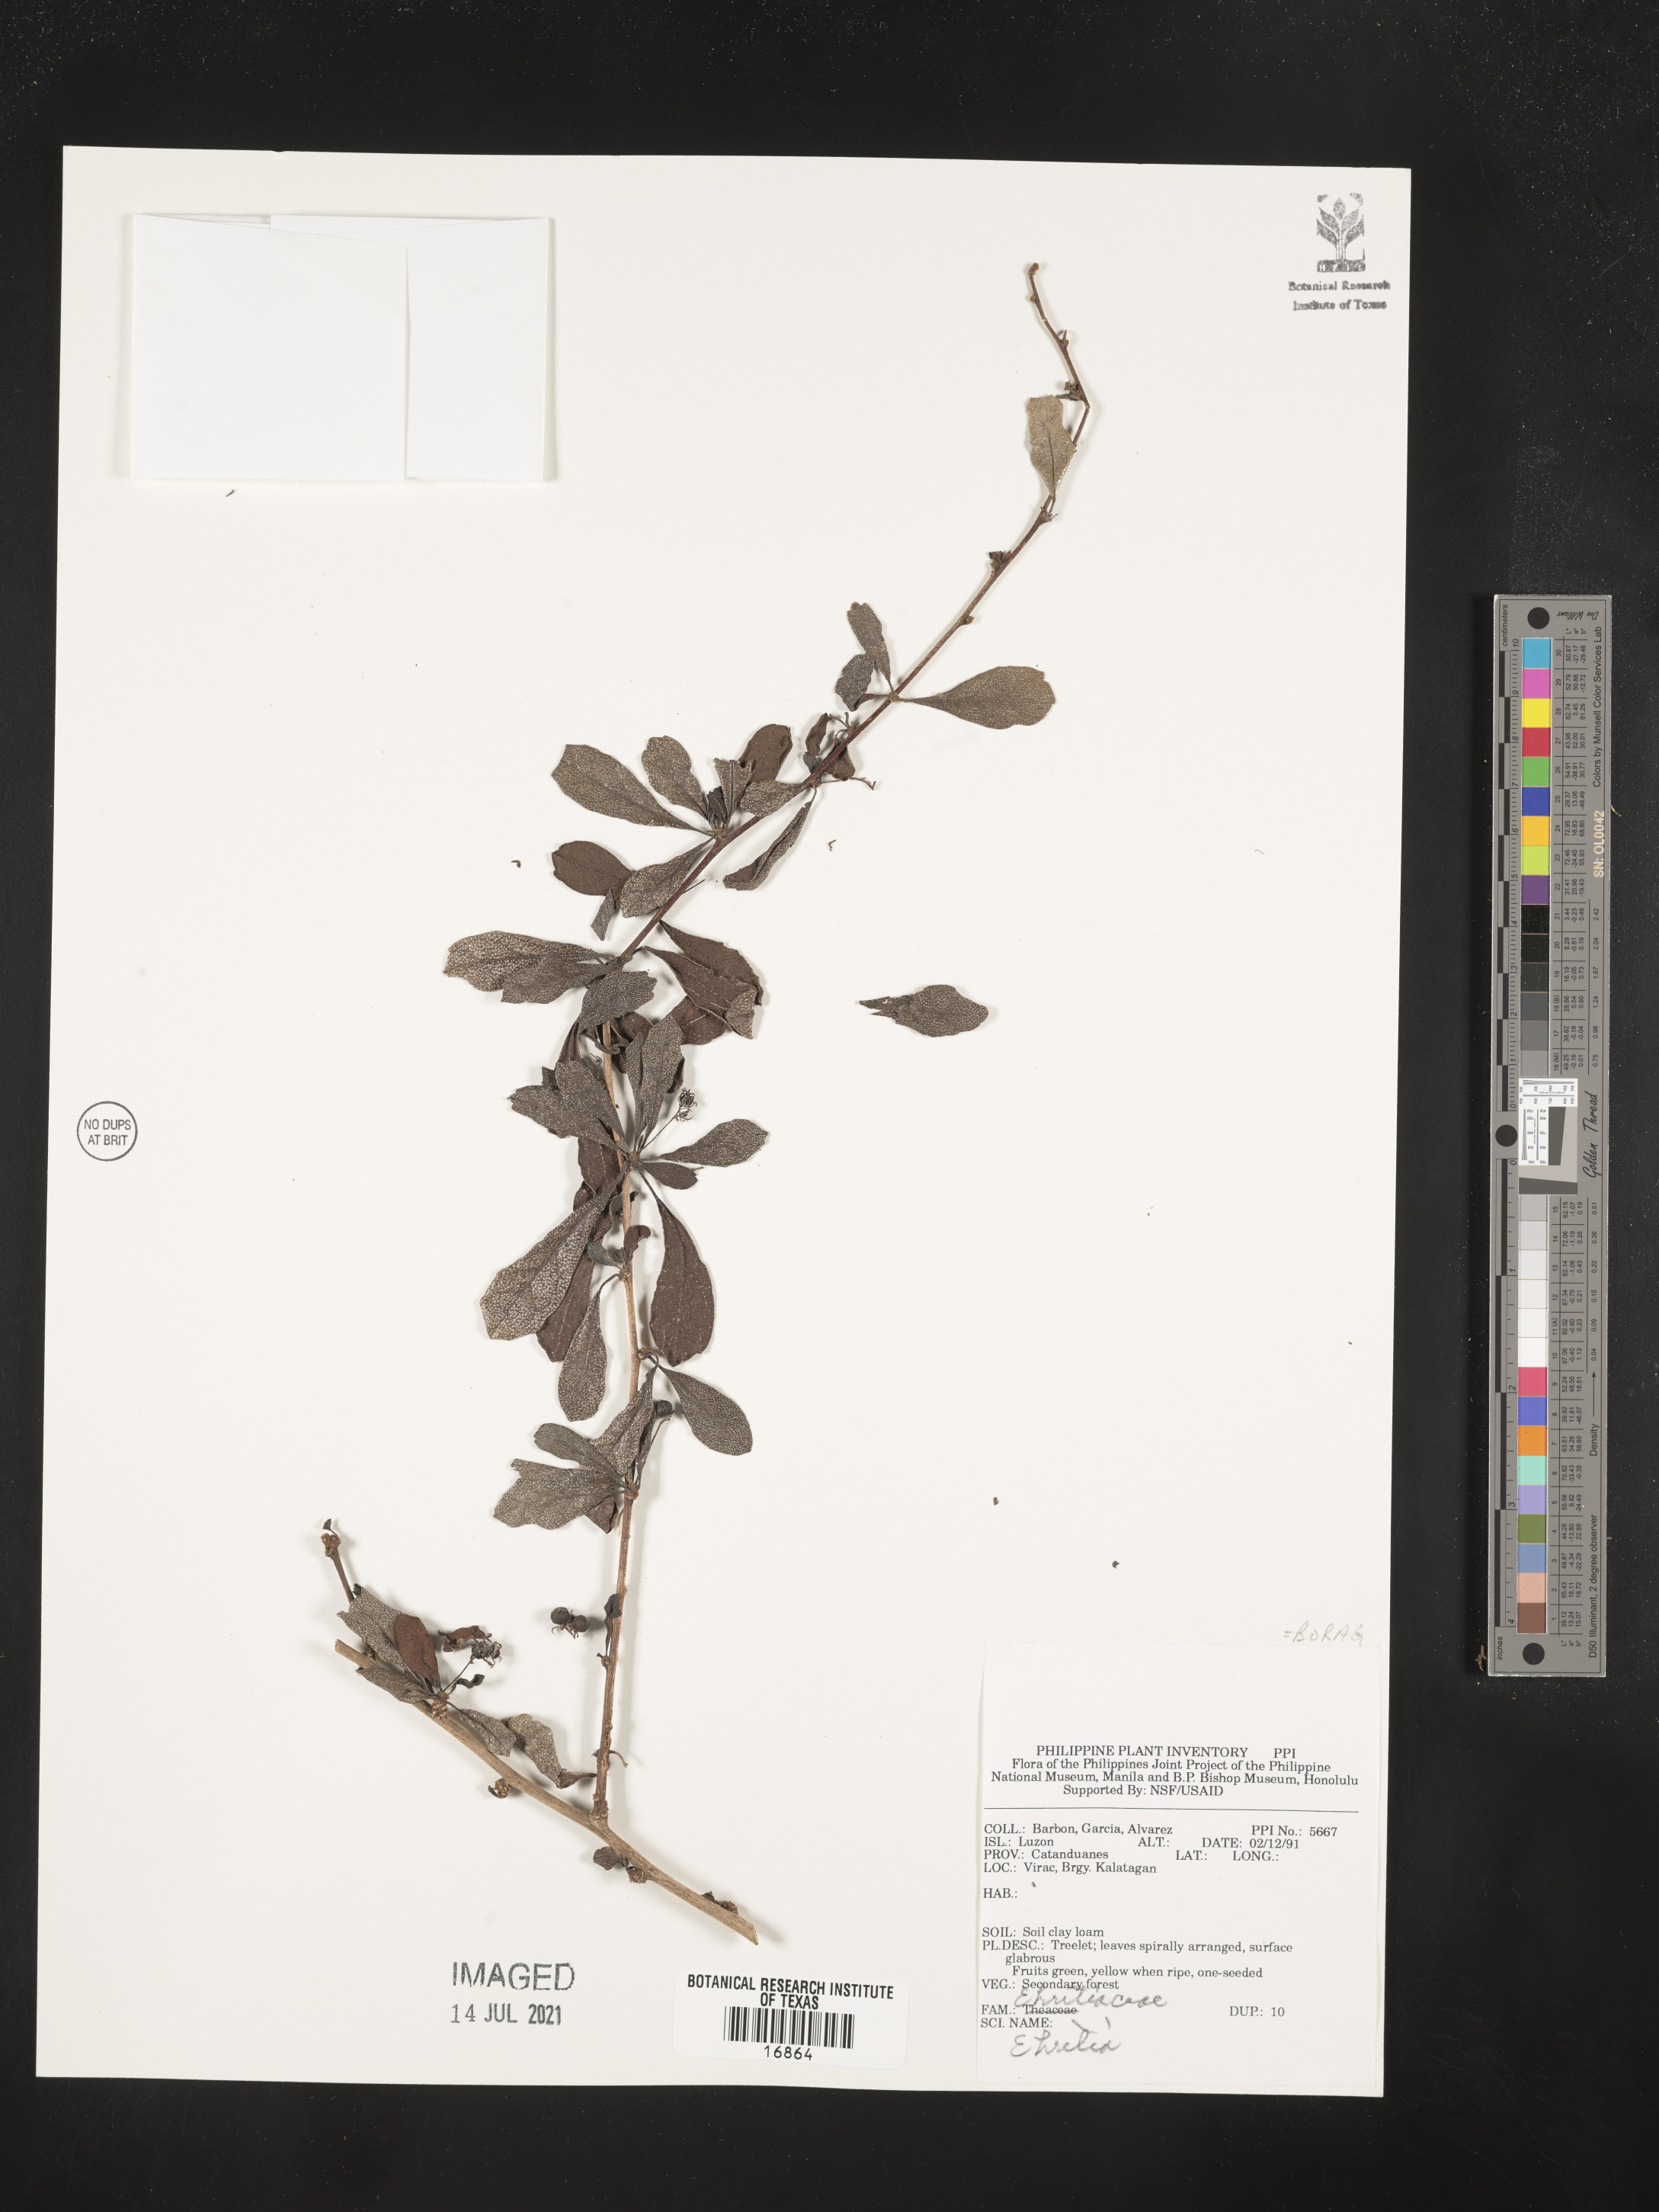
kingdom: Plantae
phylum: Tracheophyta
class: Magnoliopsida
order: Boraginales
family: Ehretiaceae
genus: Ehretia
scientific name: Ehretia
